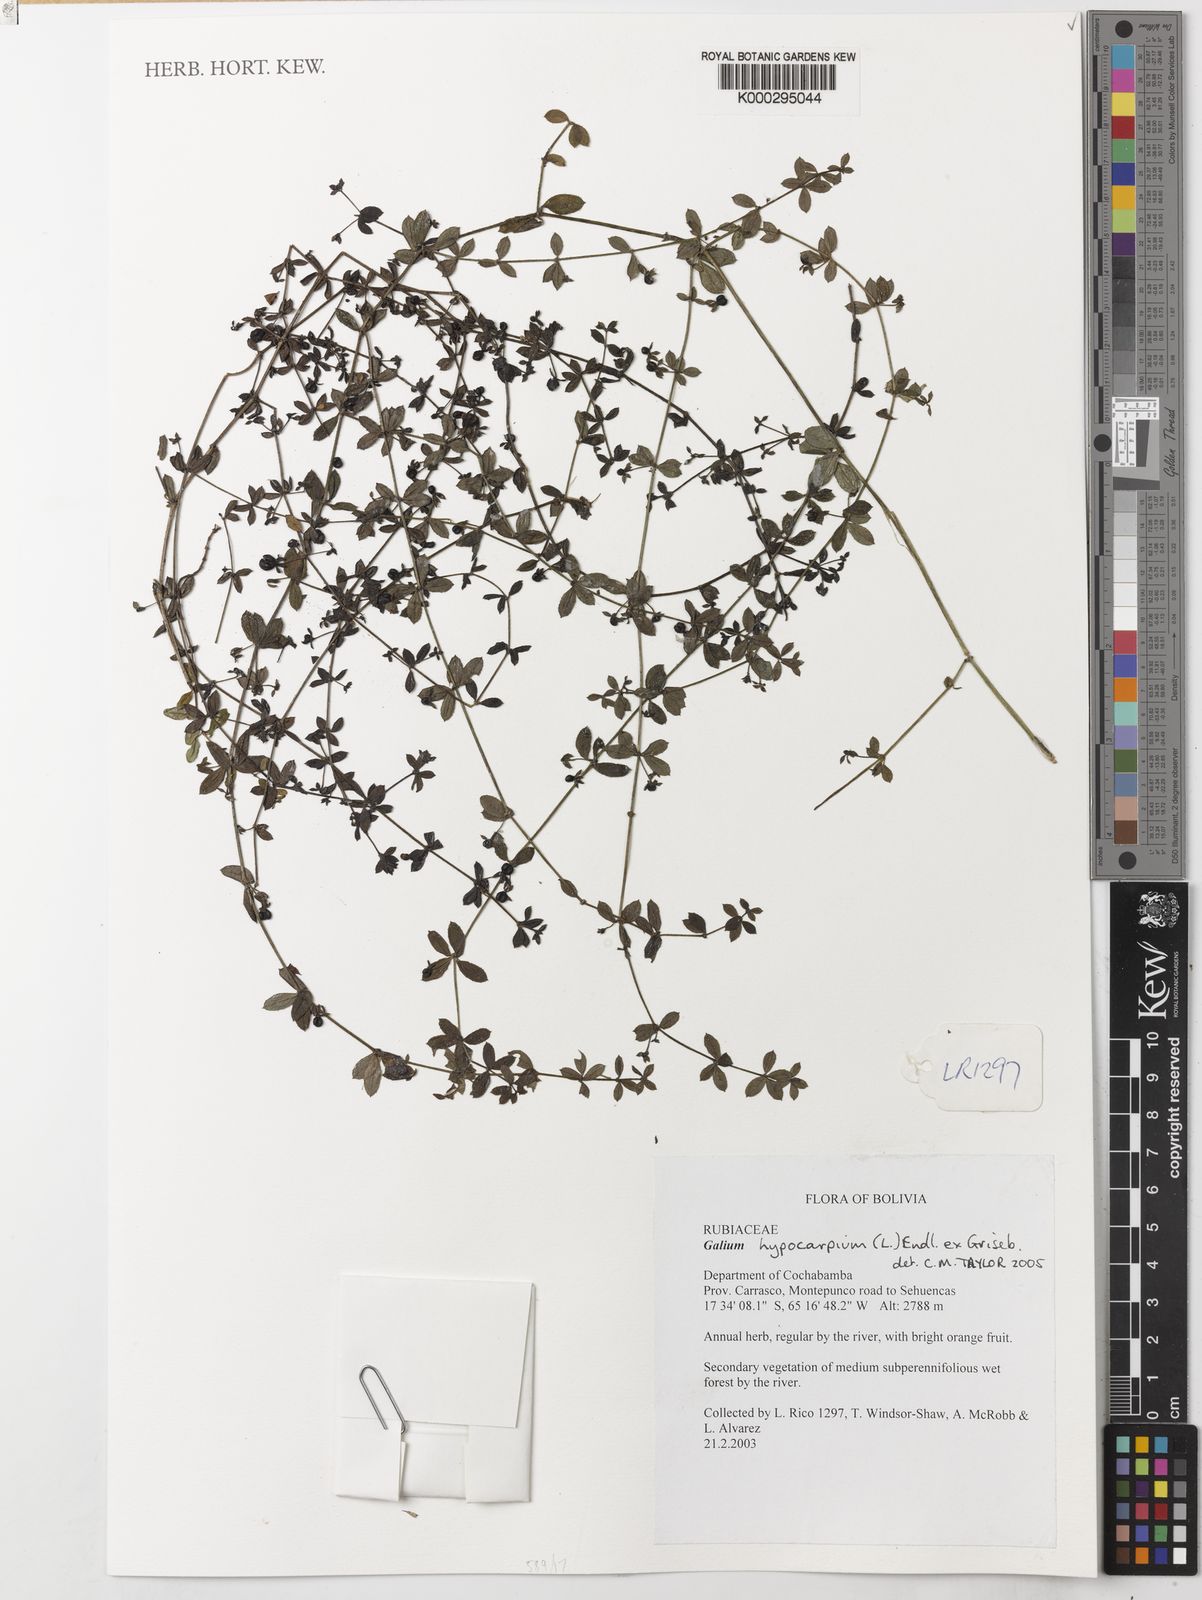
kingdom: Plantae
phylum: Tracheophyta
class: Magnoliopsida
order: Gentianales
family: Rubiaceae
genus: Galium
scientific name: Galium hypocarpium
